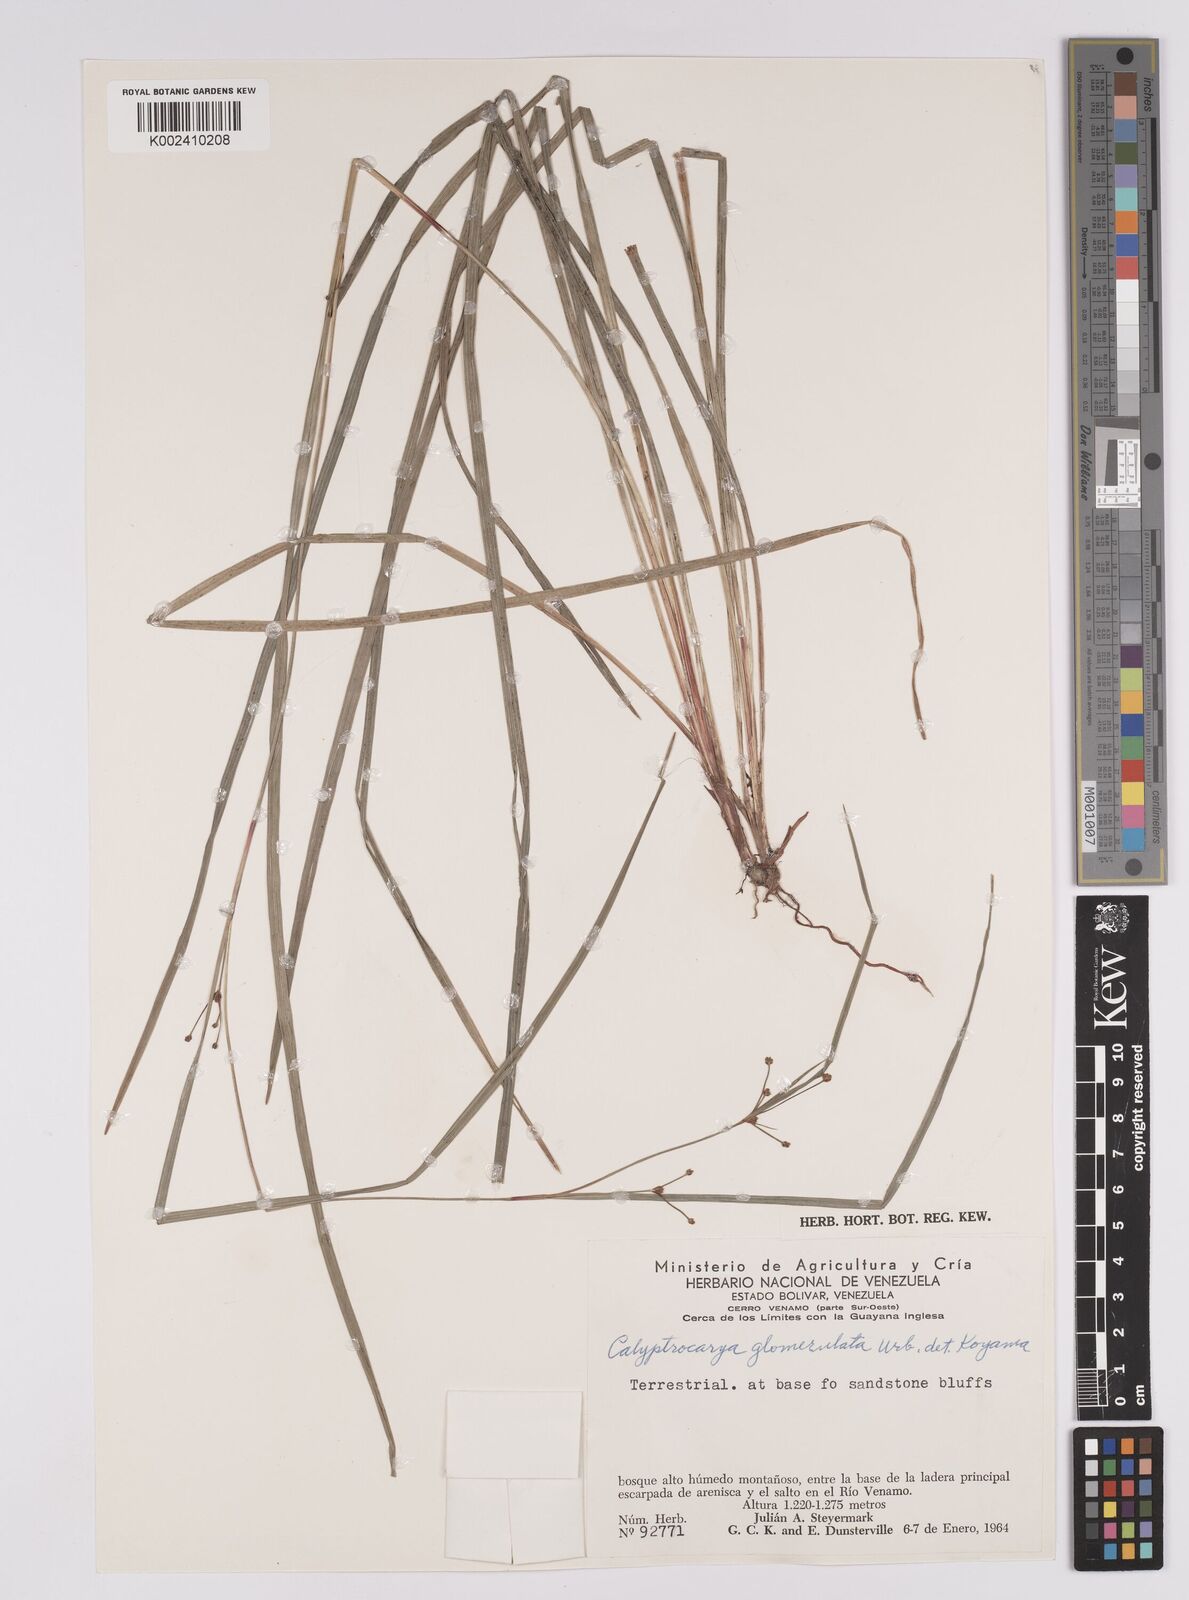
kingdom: Plantae
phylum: Tracheophyta
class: Liliopsida
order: Poales
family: Cyperaceae
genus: Calyptrocarya
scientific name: Calyptrocarya glomerulata
